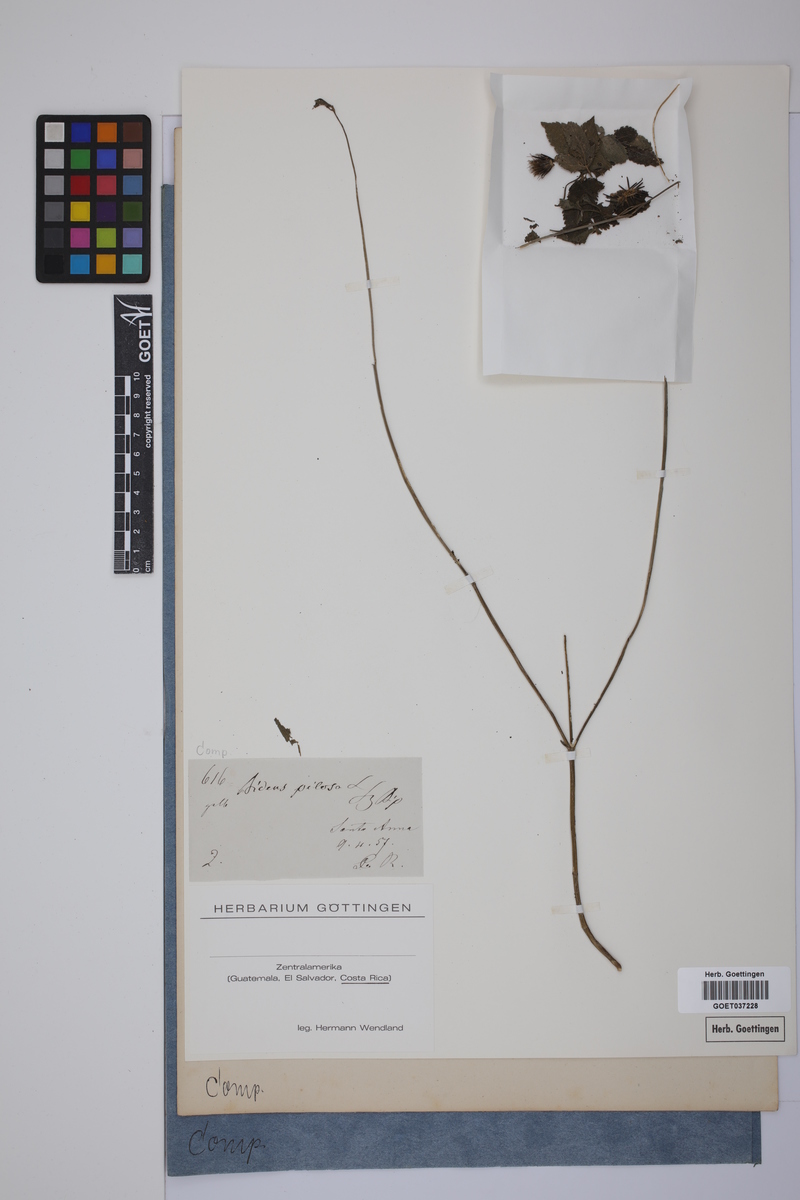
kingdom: Plantae
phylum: Tracheophyta
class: Magnoliopsida
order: Asterales
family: Asteraceae
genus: Bidens
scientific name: Bidens pilosa
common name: Black-jack
